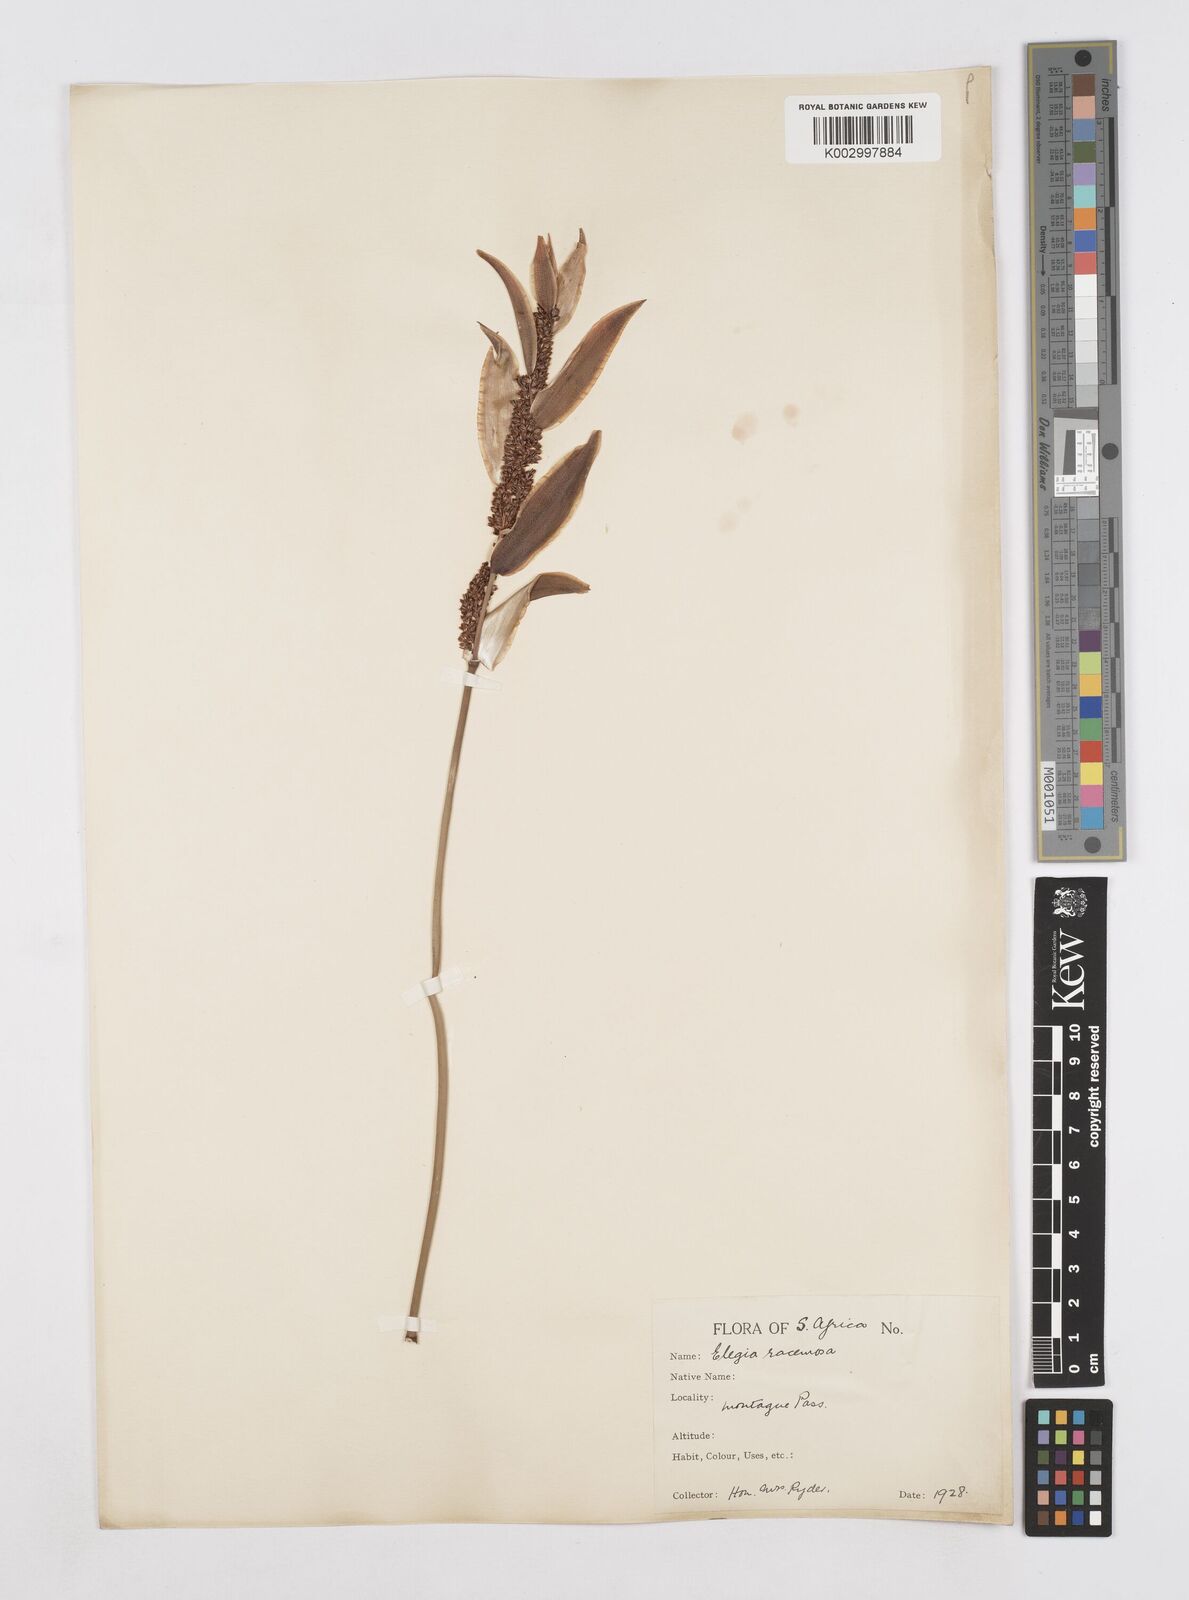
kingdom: Plantae
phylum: Tracheophyta
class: Liliopsida
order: Poales
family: Restionaceae
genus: Elegia
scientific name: Elegia racemosa
